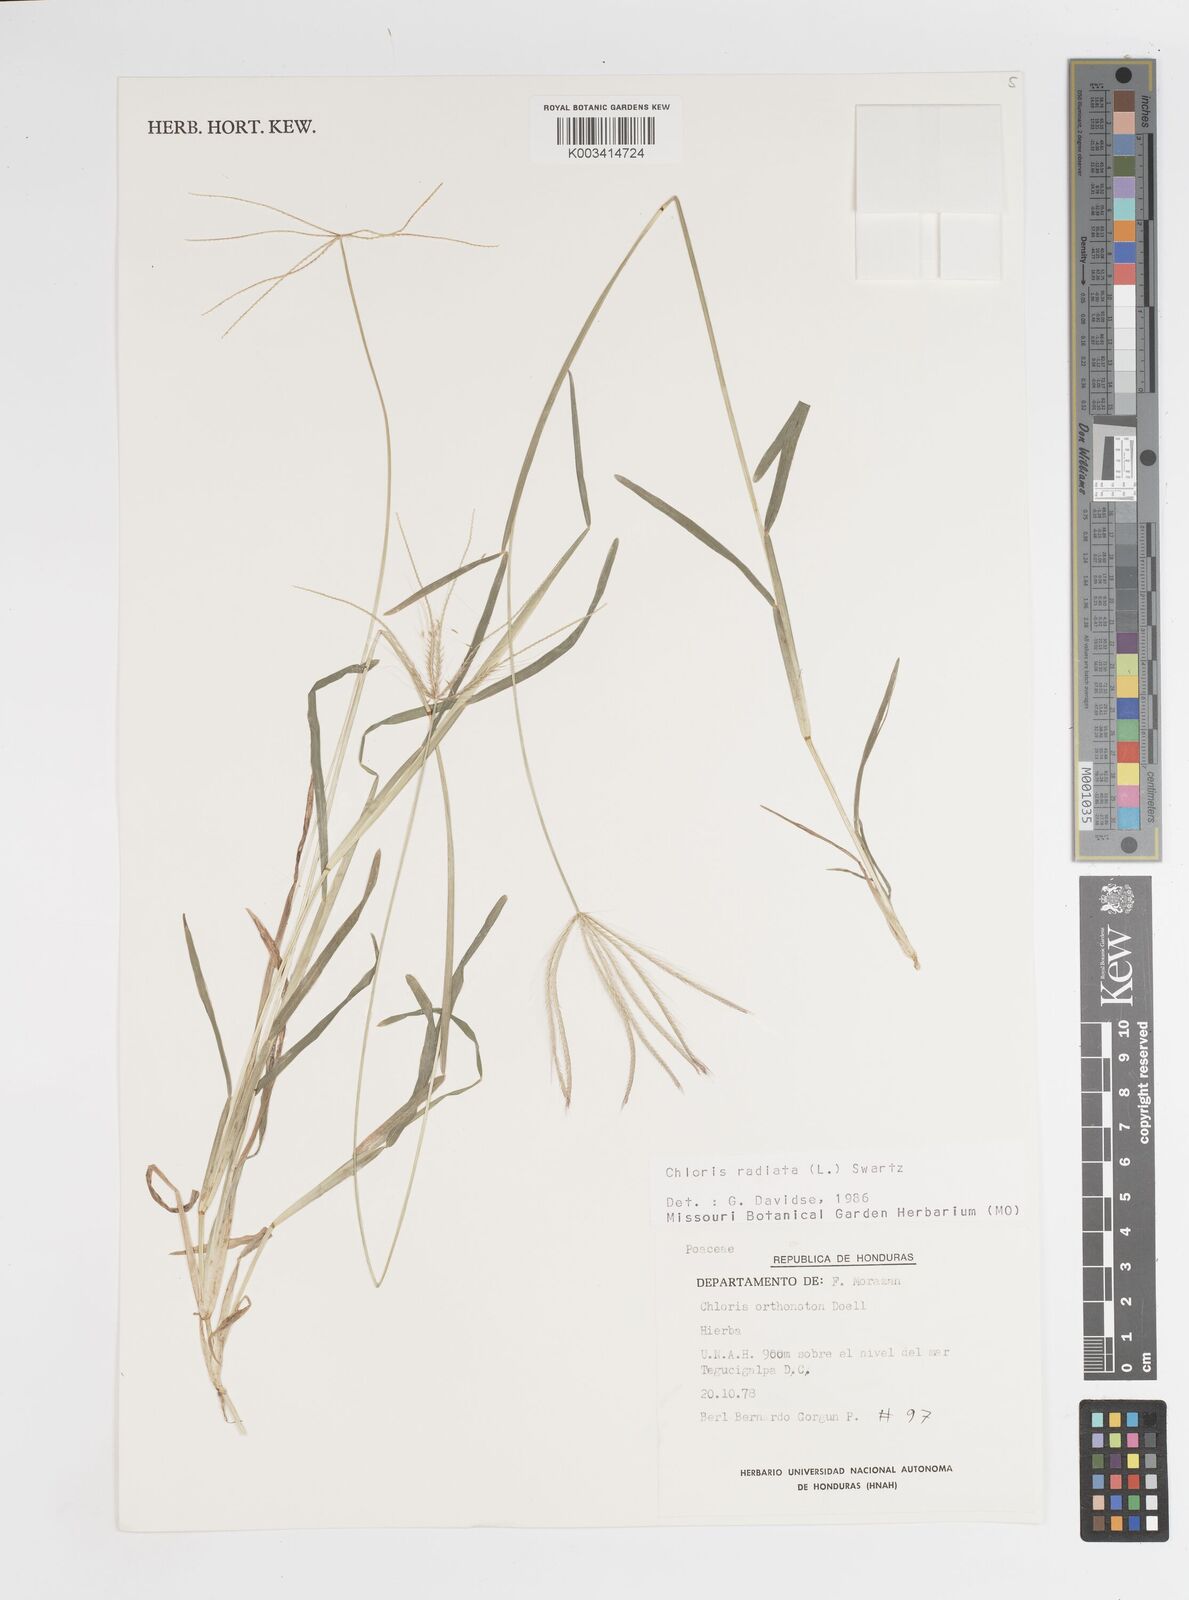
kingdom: Plantae
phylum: Tracheophyta
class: Liliopsida
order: Poales
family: Poaceae
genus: Chloris
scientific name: Chloris radiata
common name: Radiate fingergrass
